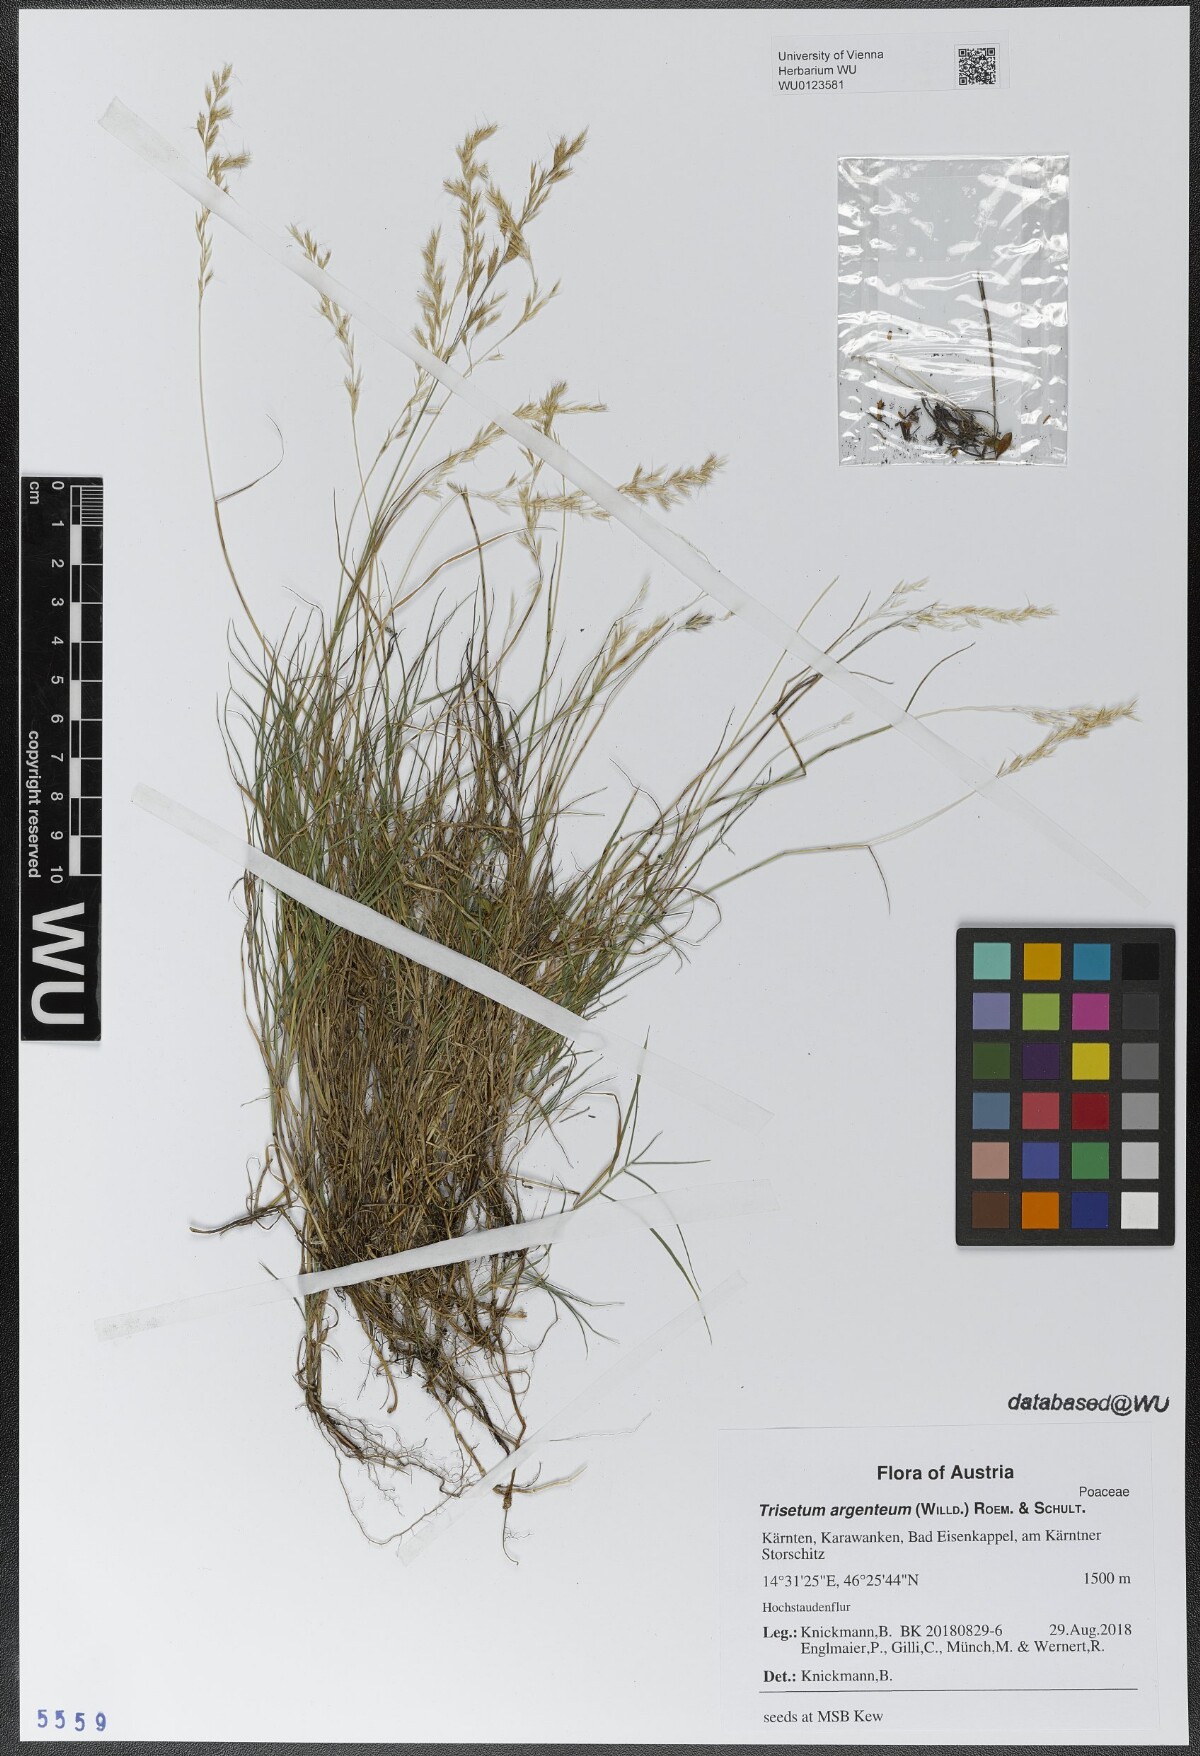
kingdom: Plantae
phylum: Tracheophyta
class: Liliopsida
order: Poales
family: Poaceae
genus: Trisetum
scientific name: Trisetum argenteum
